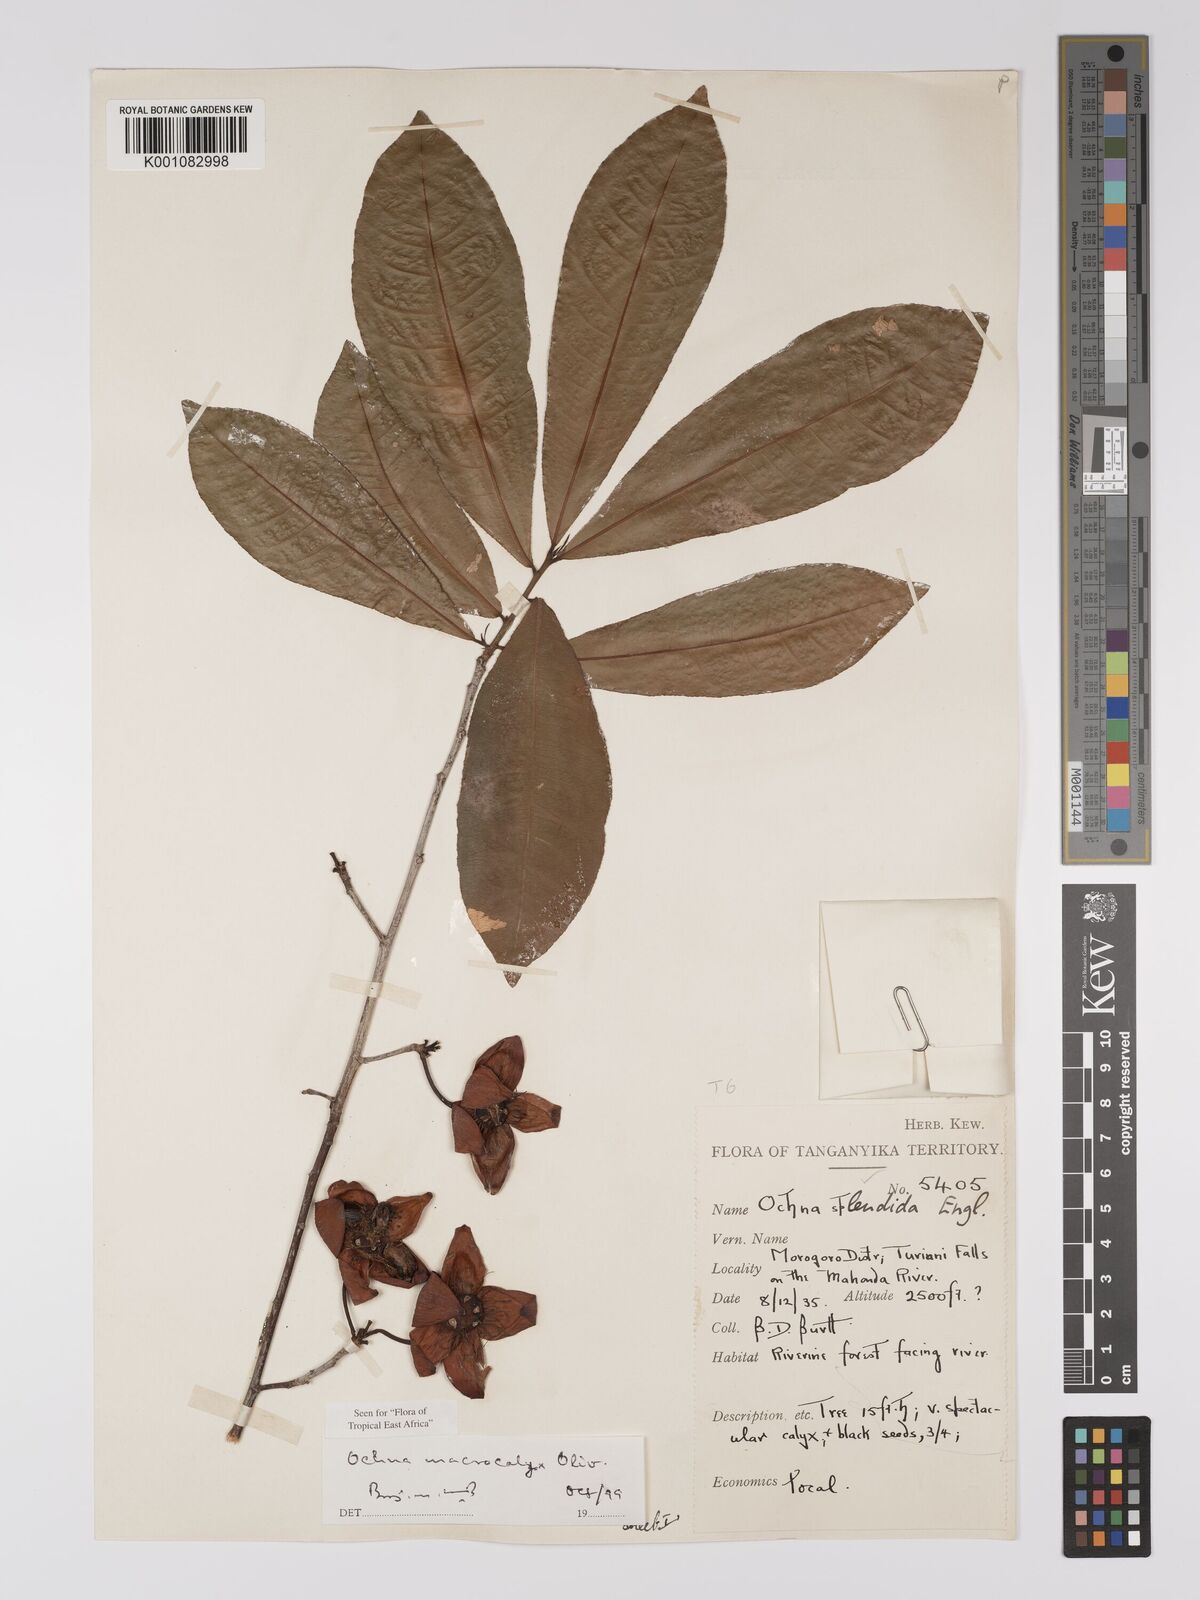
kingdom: Plantae
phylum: Tracheophyta
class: Magnoliopsida
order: Malpighiales
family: Ochnaceae
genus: Ochna
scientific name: Ochna macrocalyx
